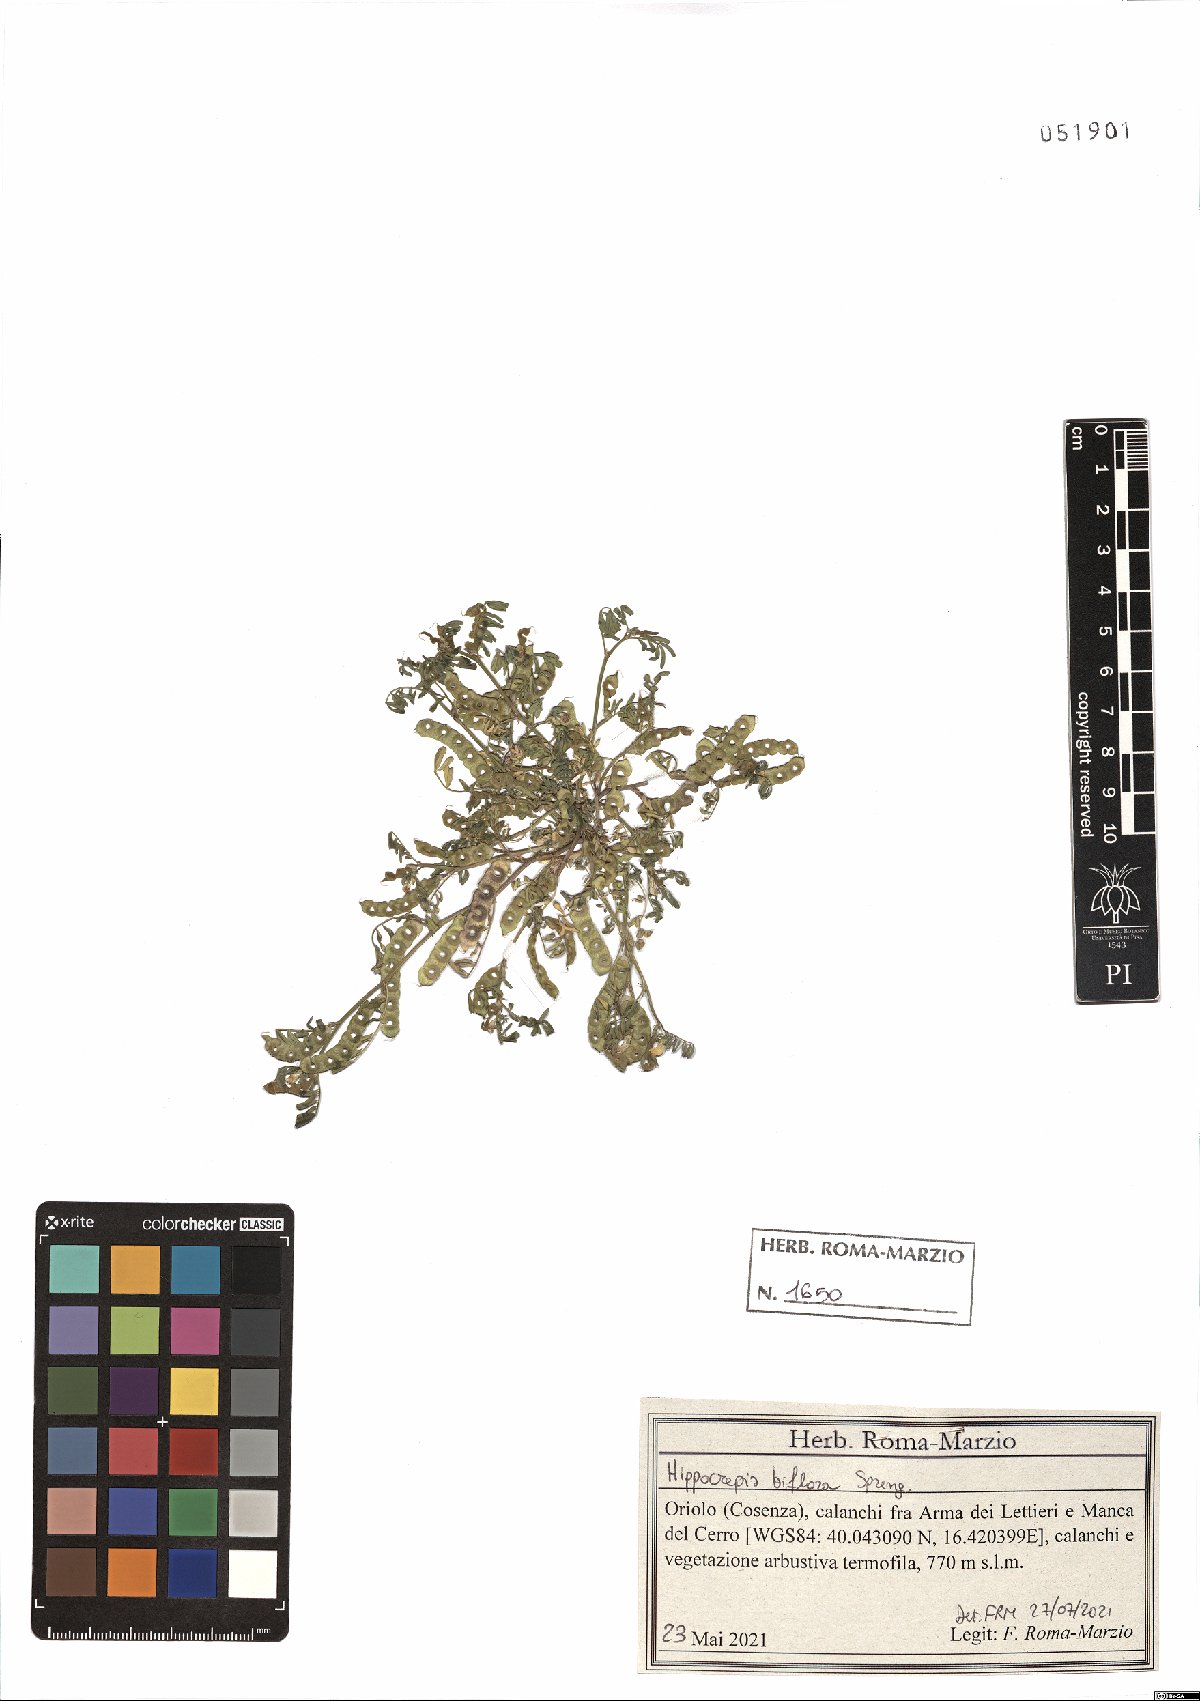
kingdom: Plantae
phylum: Tracheophyta
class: Magnoliopsida
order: Fabales
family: Fabaceae
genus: Hippocrepis
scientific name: Hippocrepis biflora
